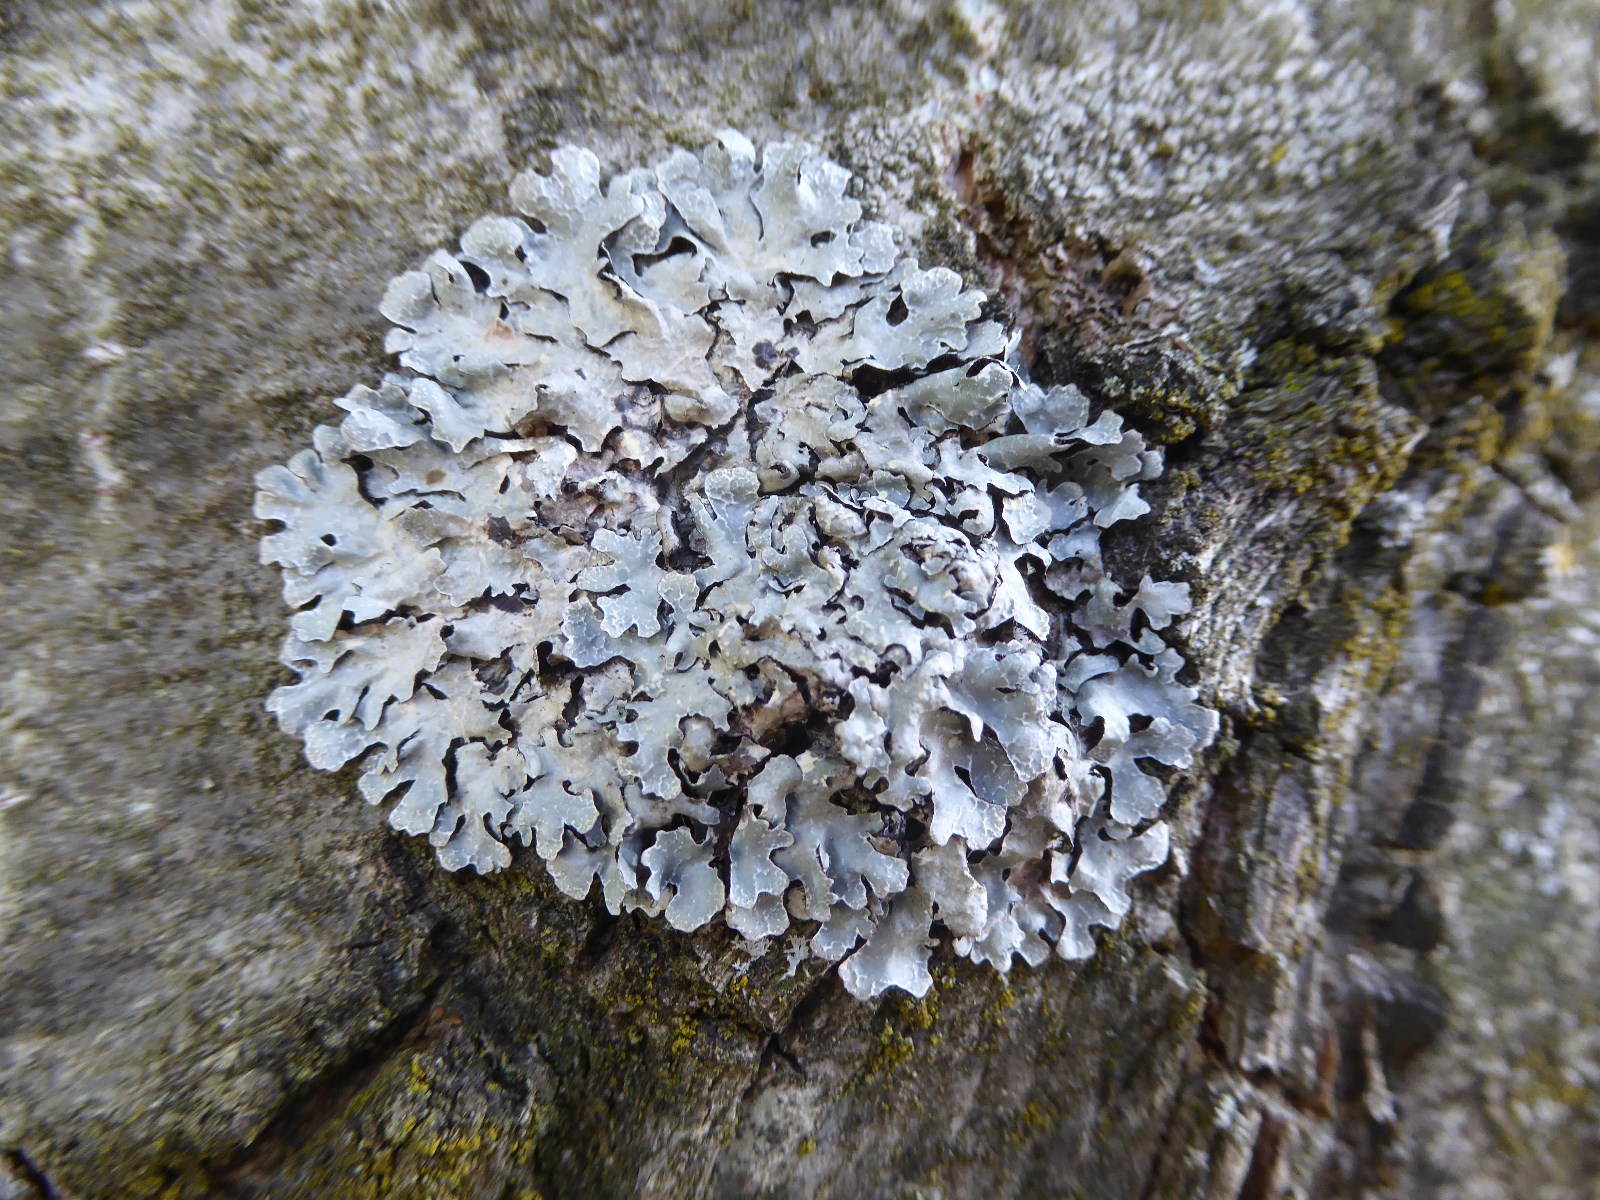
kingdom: Fungi
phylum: Ascomycota
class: Lecanoromycetes
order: Lecanorales
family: Parmeliaceae
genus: Parmelia
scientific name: Parmelia sulcata
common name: rynket skållav
